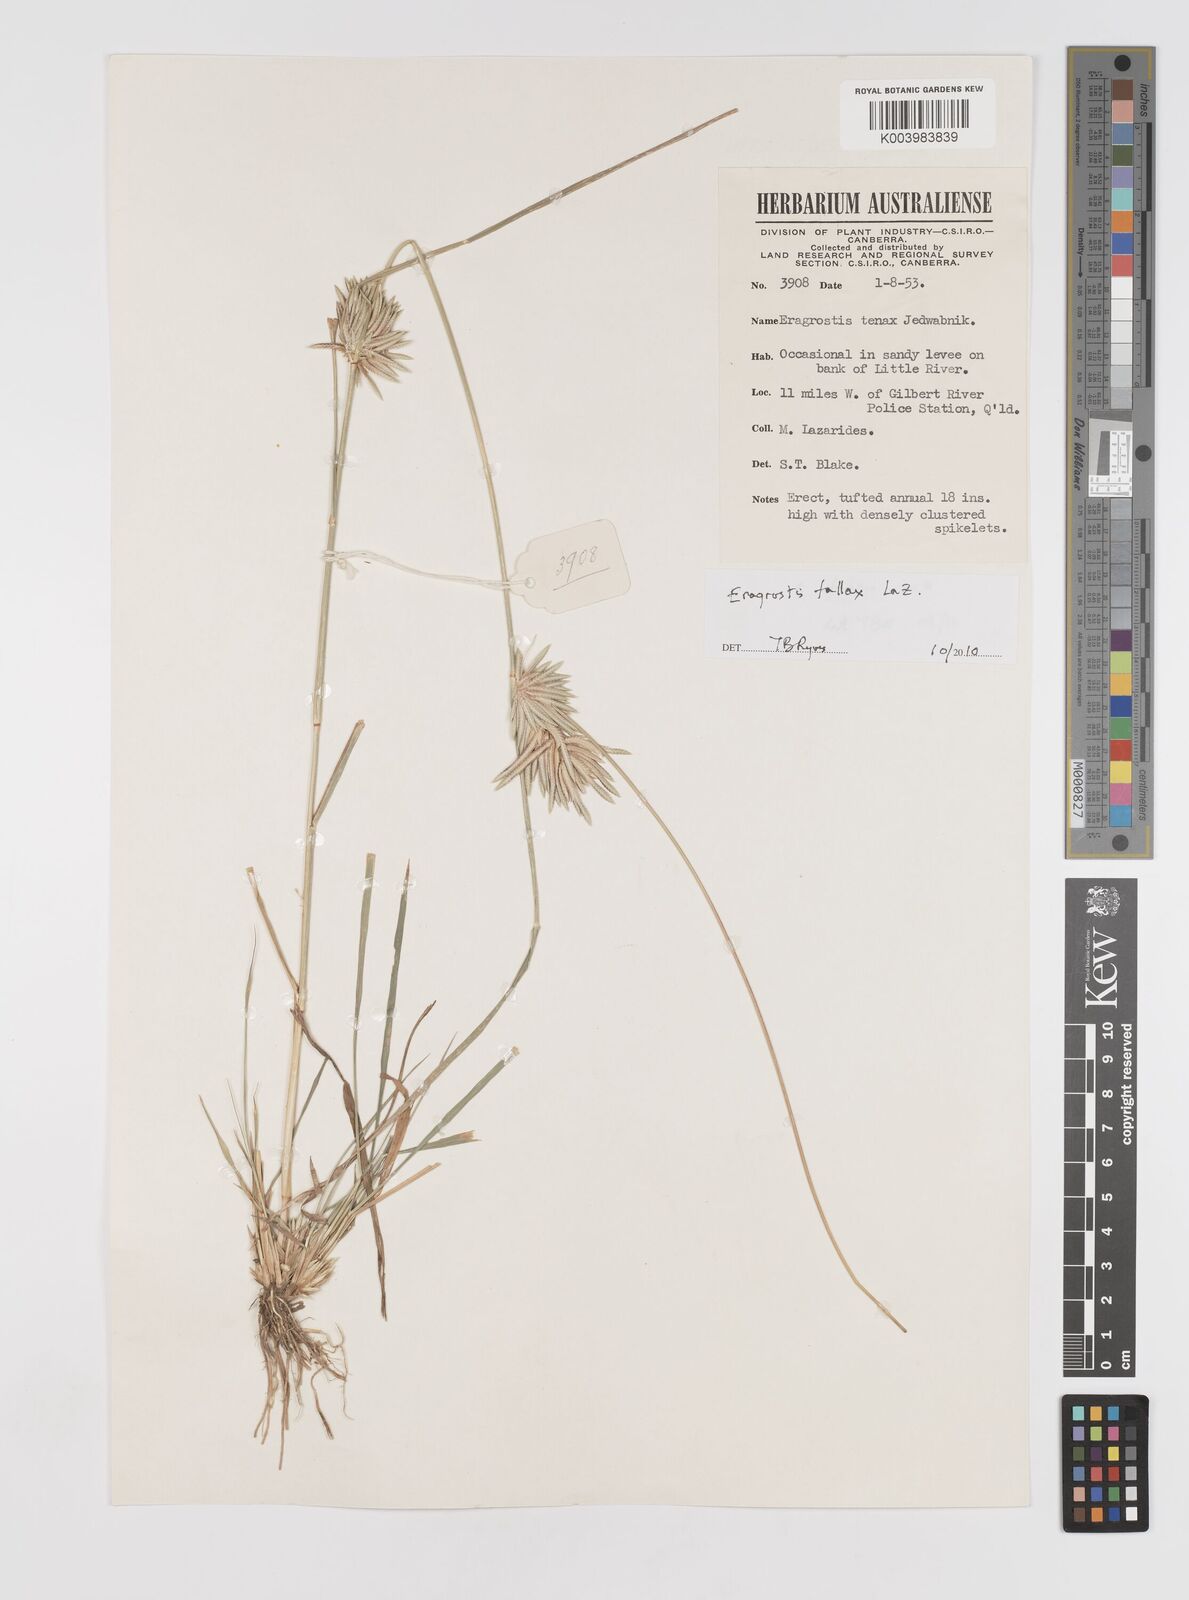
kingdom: Plantae
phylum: Tracheophyta
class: Liliopsida
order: Poales
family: Poaceae
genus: Eragrostis
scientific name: Eragrostis fallax
